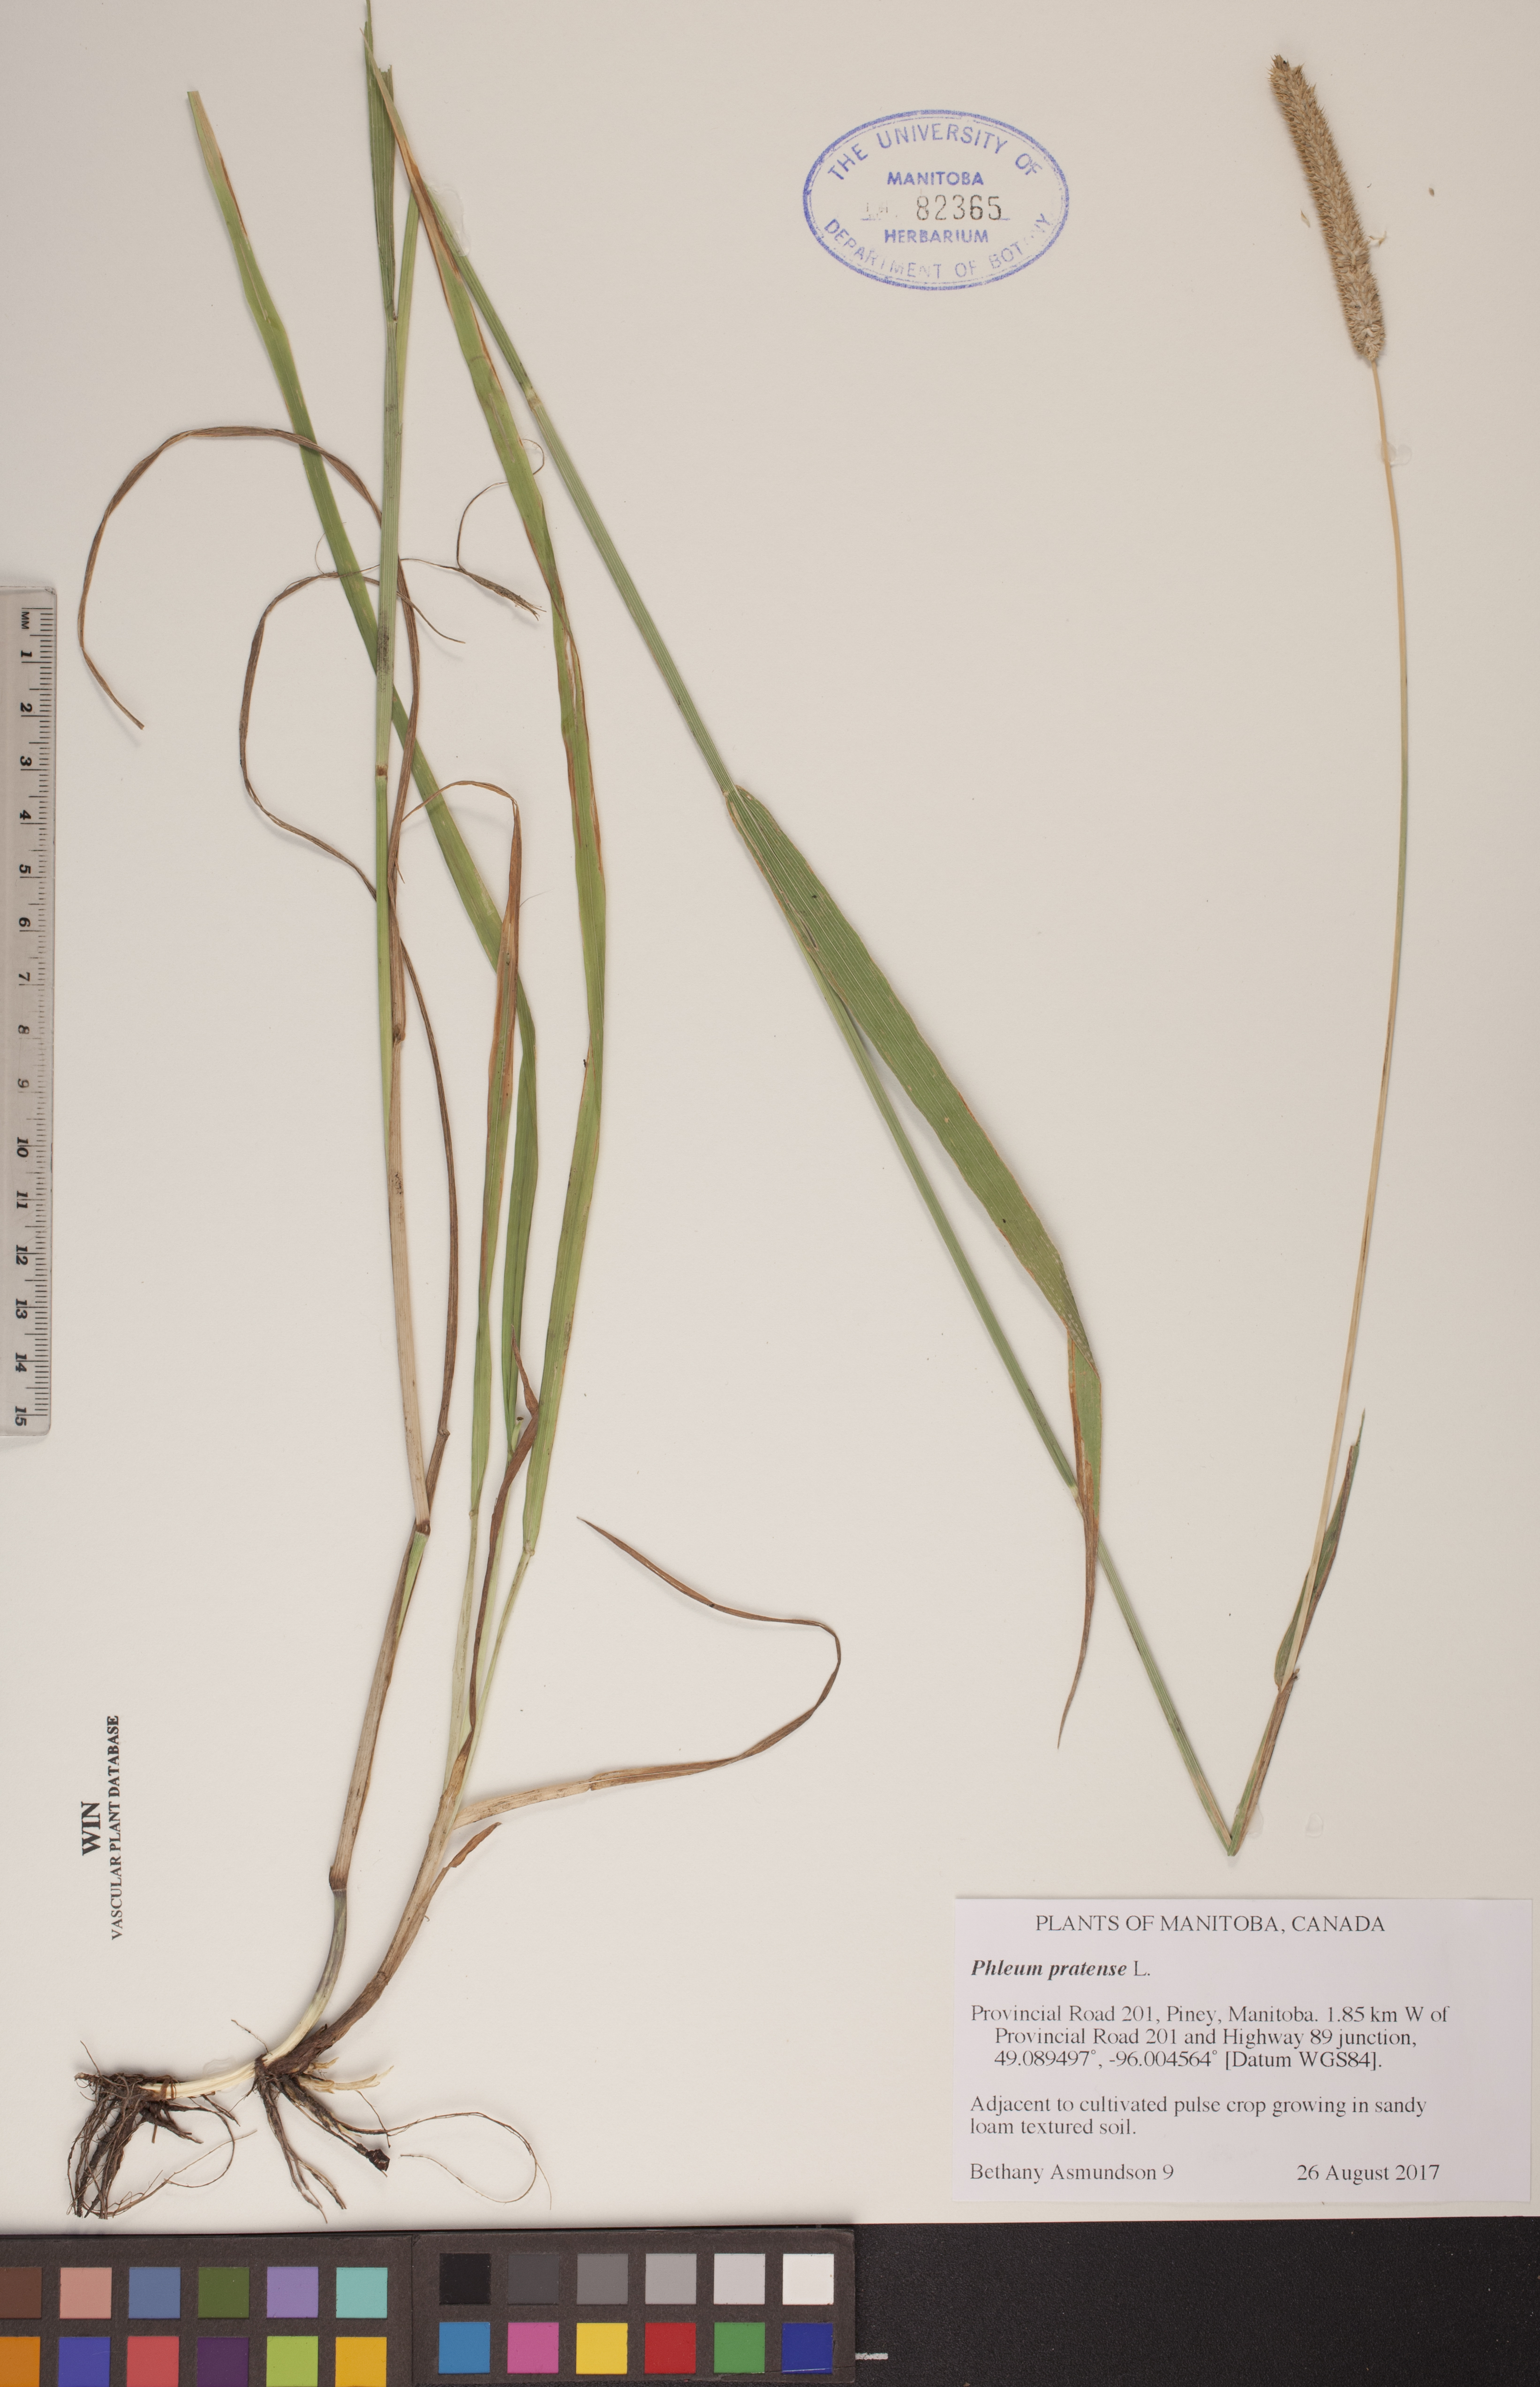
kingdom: Plantae
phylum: Tracheophyta
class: Liliopsida
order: Poales
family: Poaceae
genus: Phleum
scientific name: Phleum pratense
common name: Timothy grass
